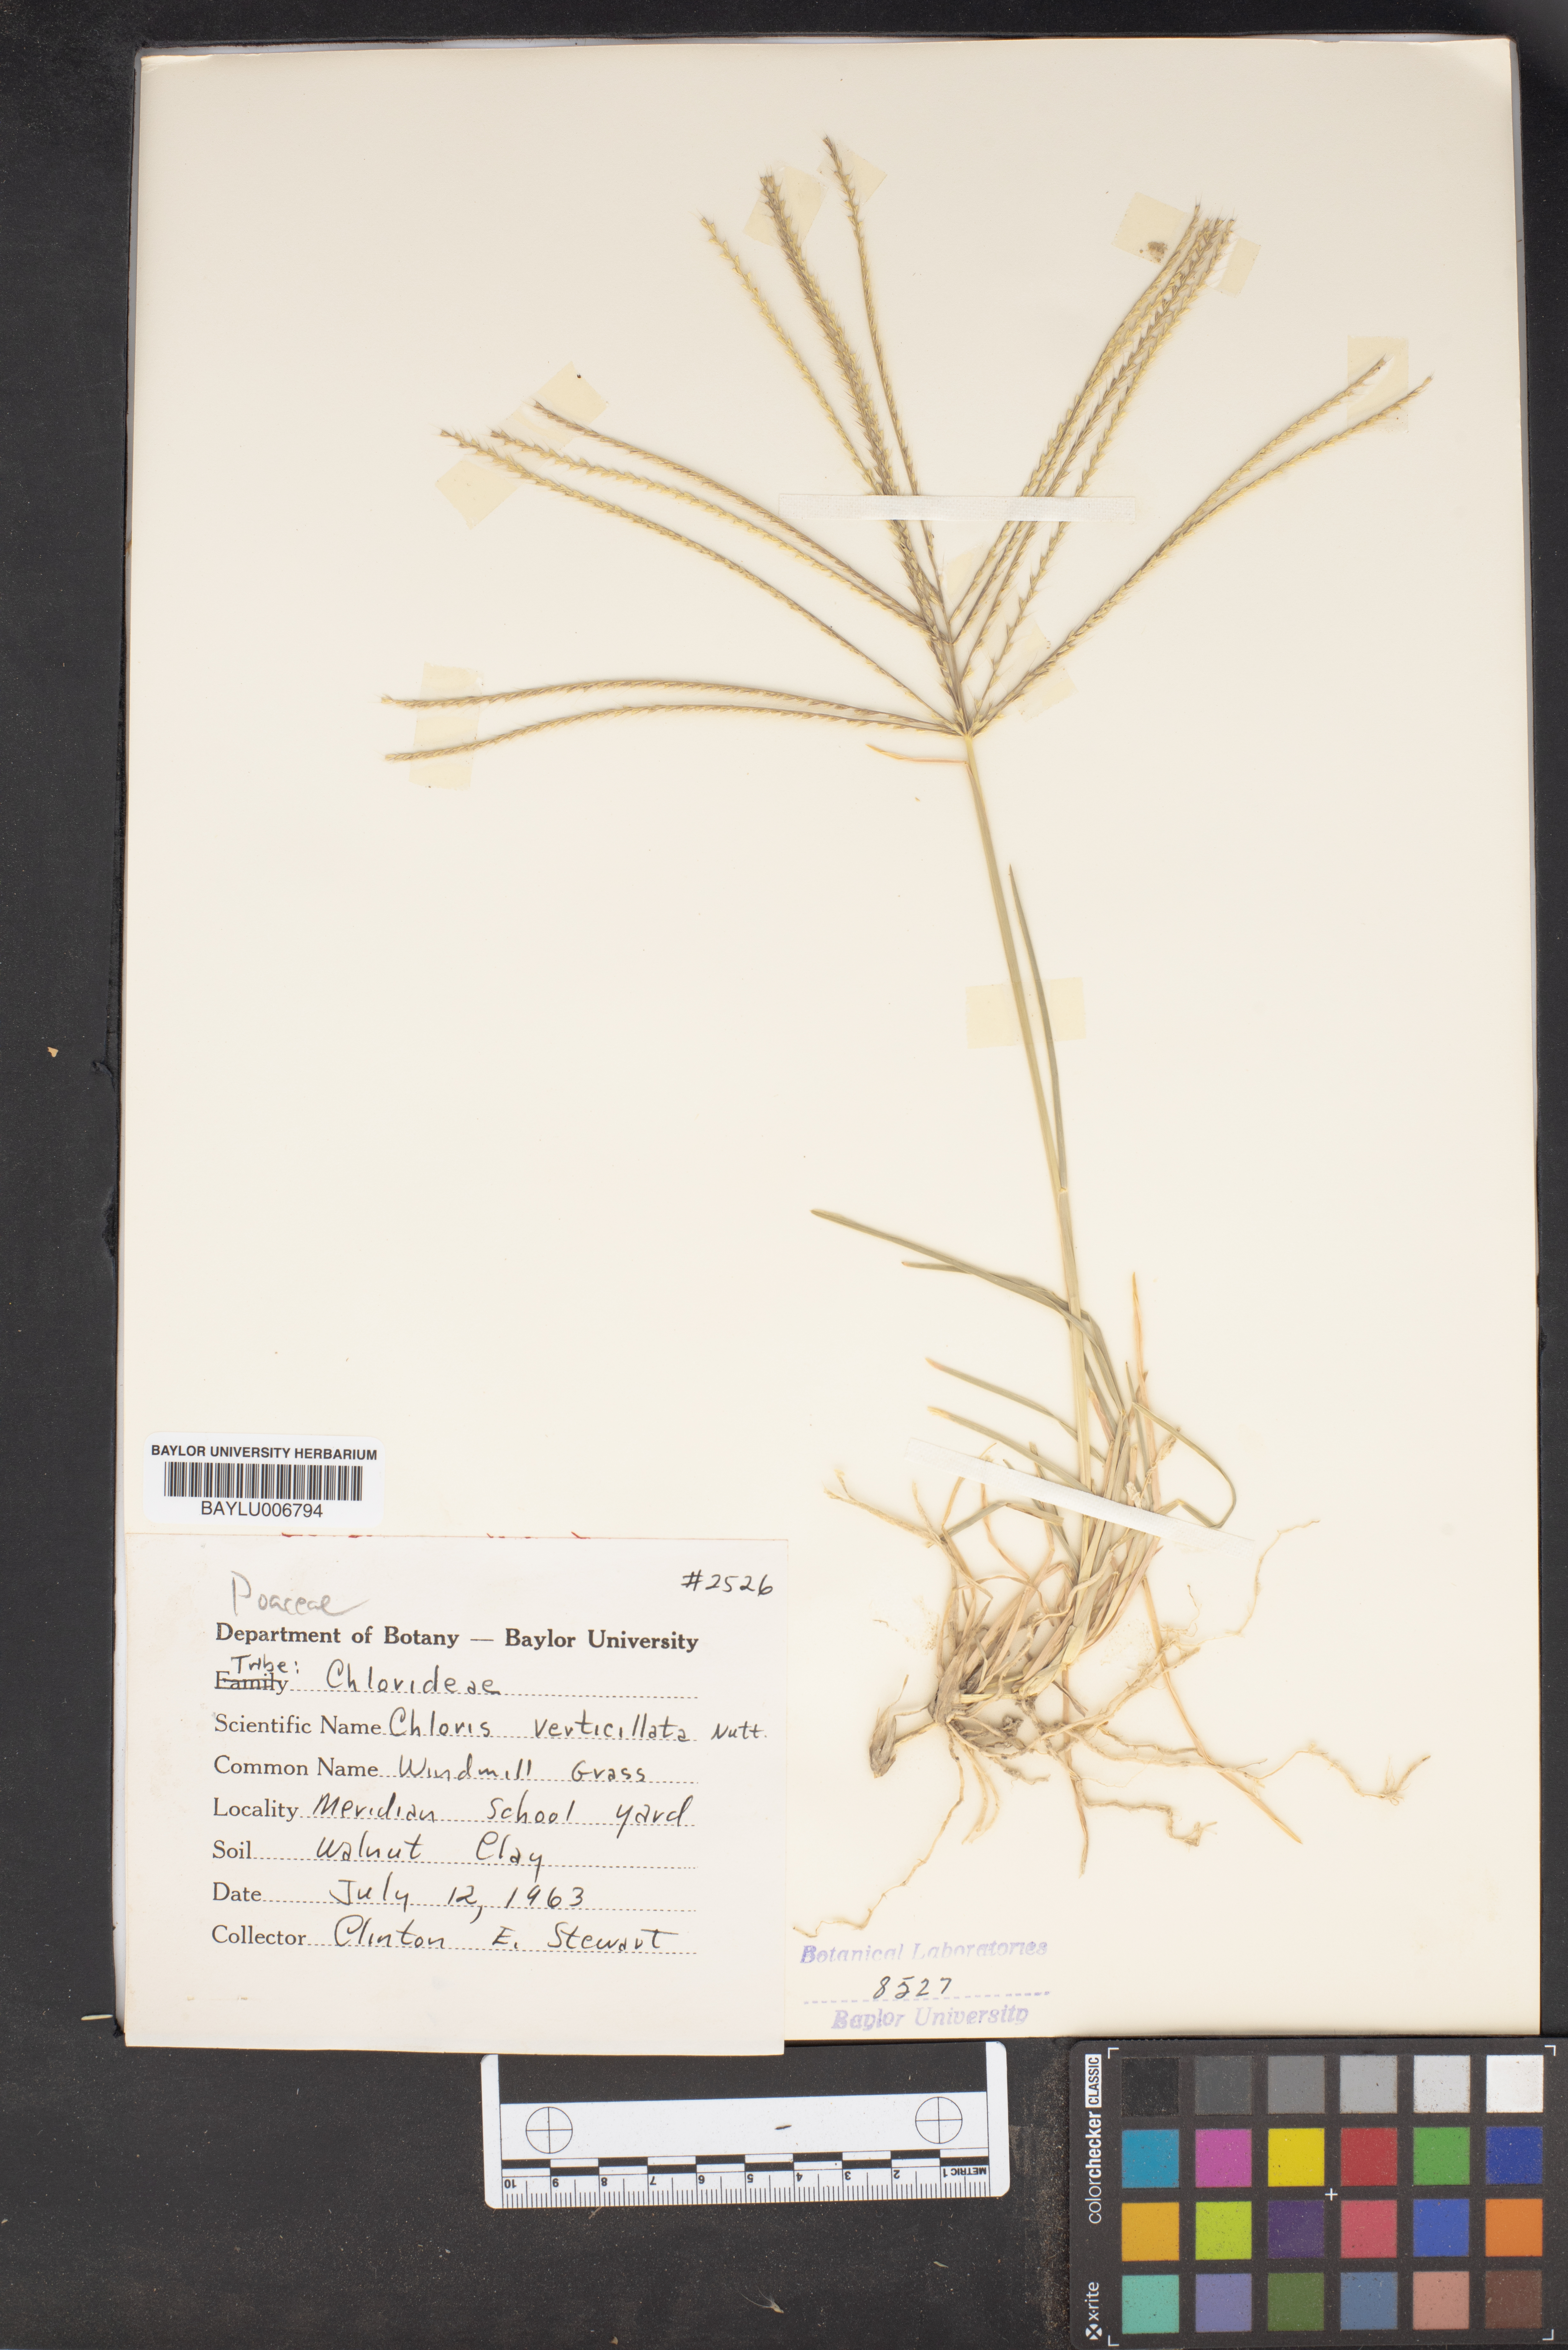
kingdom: Plantae
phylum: Tracheophyta
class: Liliopsida
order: Poales
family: Poaceae
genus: Chloris
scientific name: Chloris verticillata
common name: Tumble windmill grass
